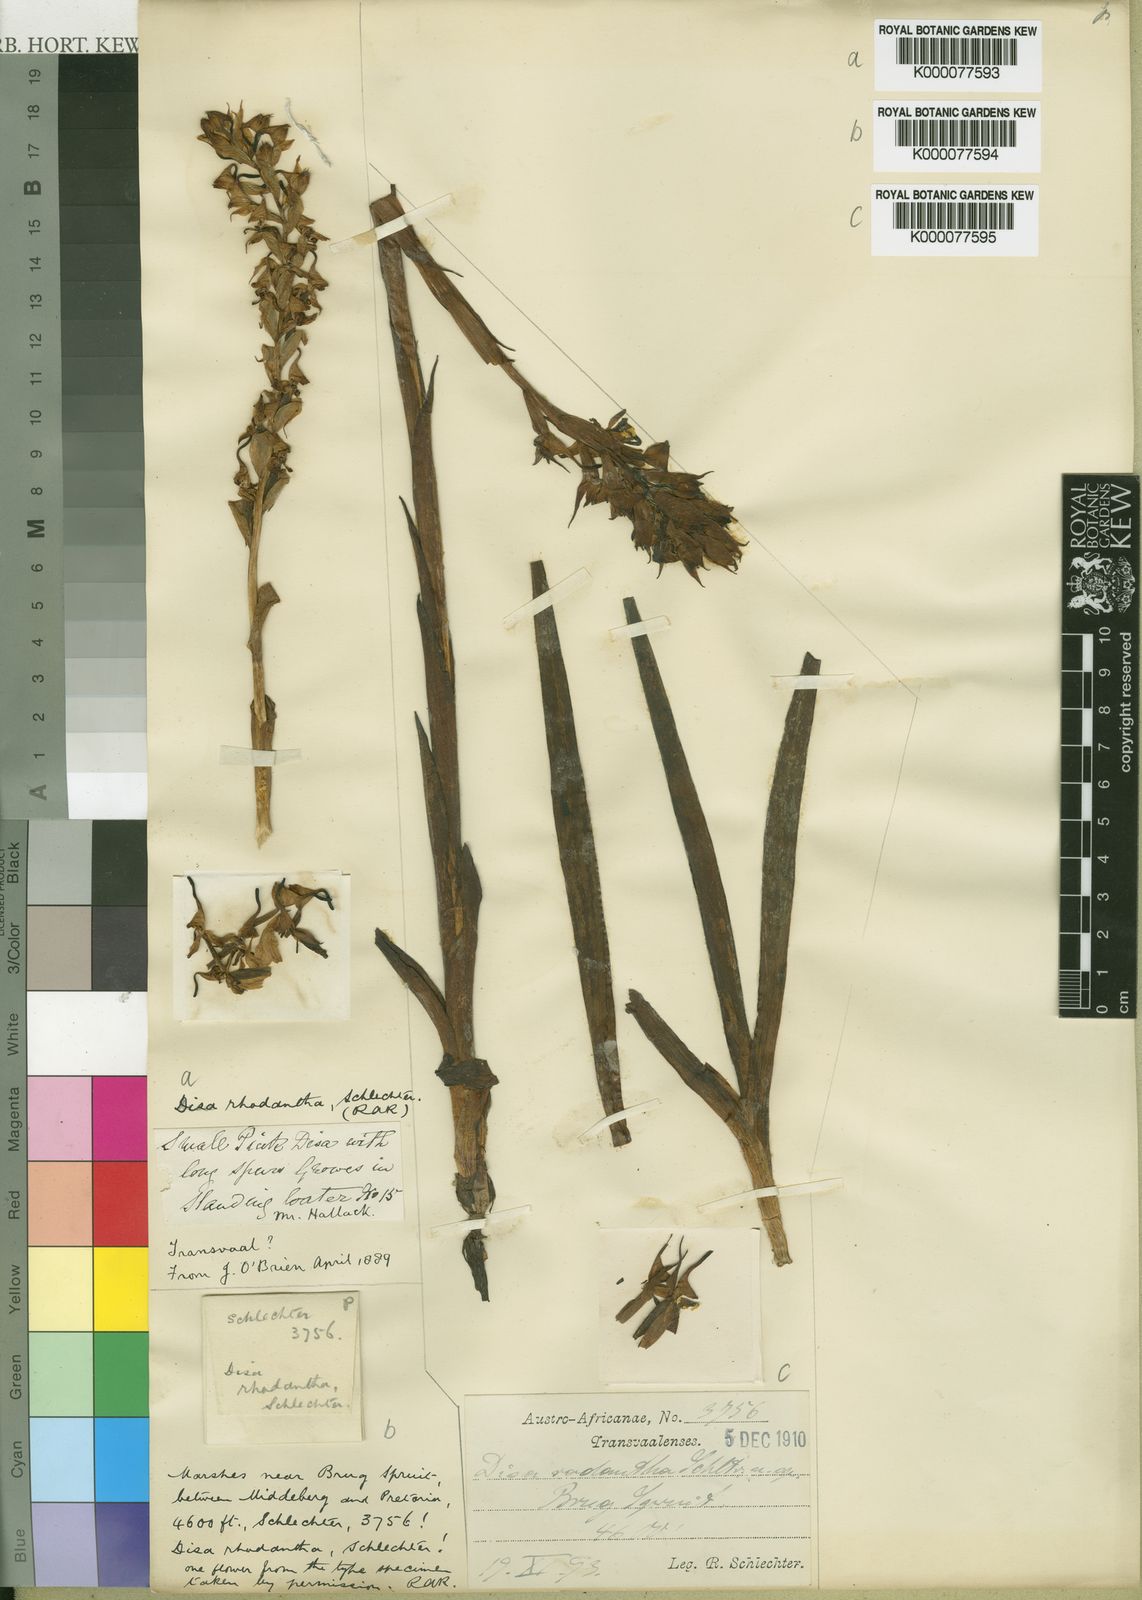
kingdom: Plantae
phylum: Tracheophyta
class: Liliopsida
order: Asparagales
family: Orchidaceae
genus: Disa
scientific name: Disa rhodantha
